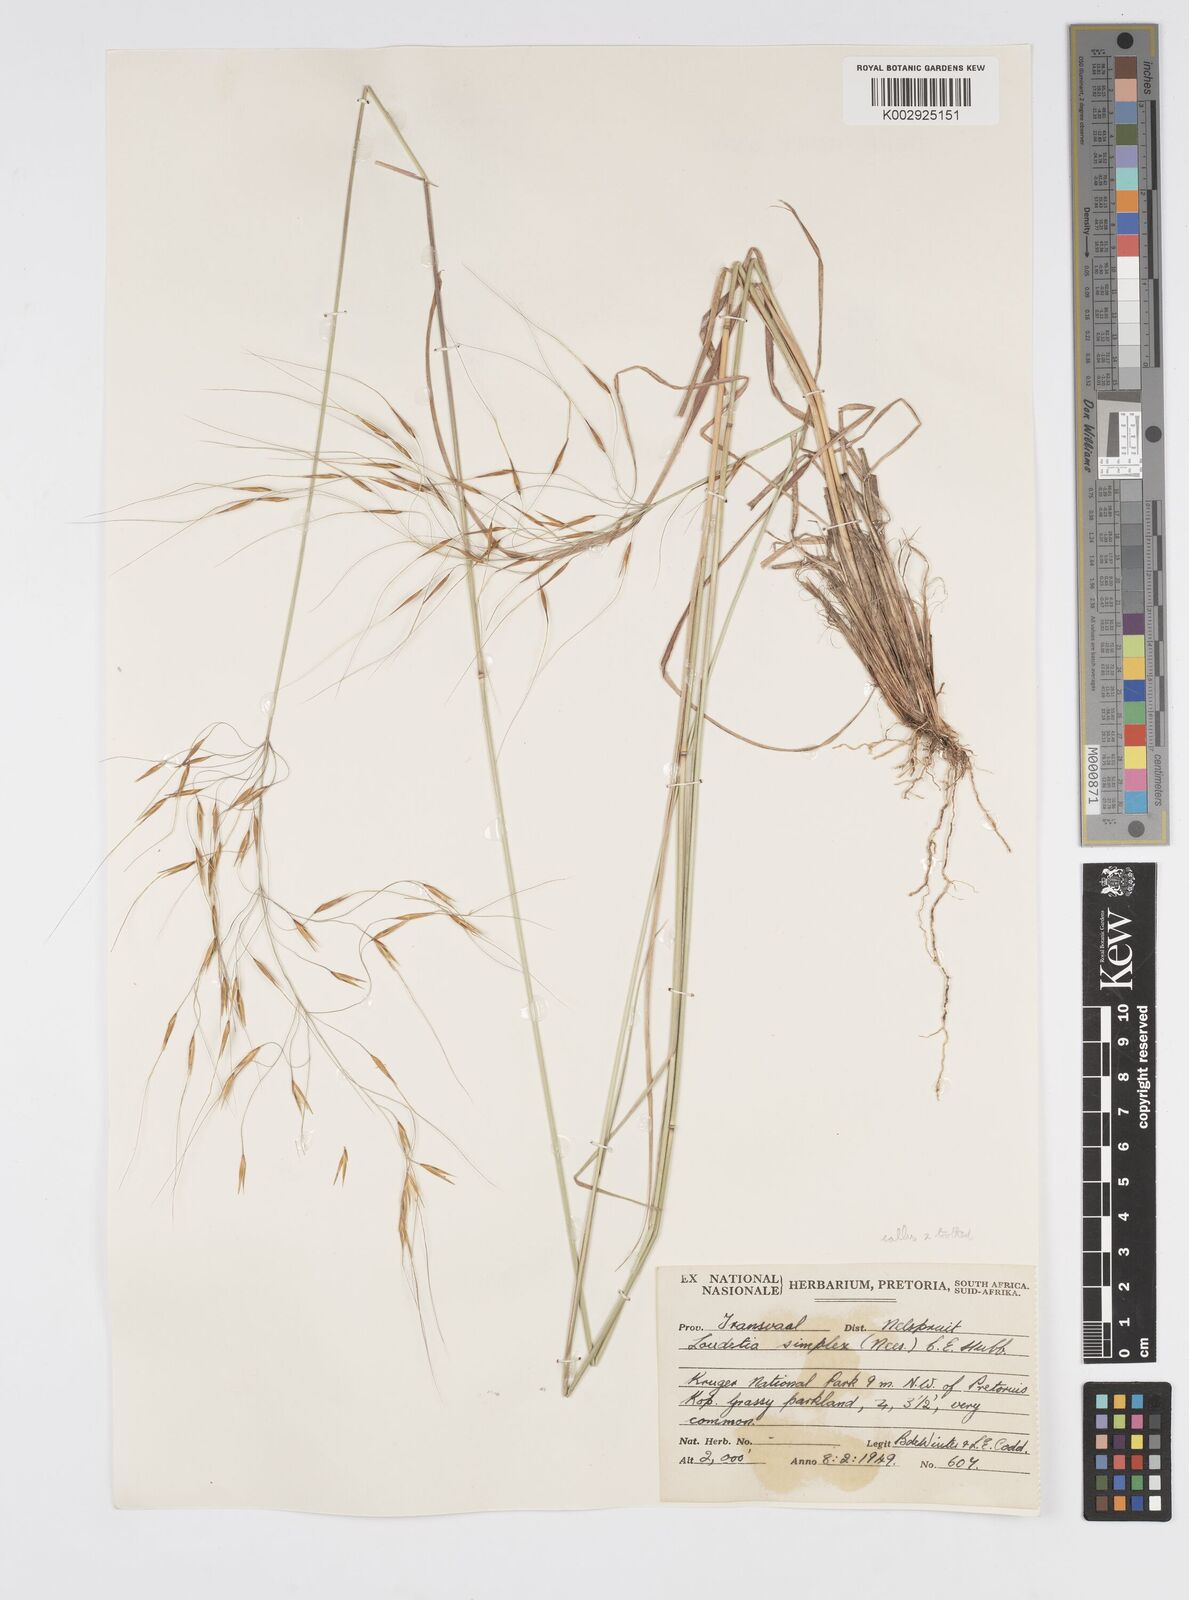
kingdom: Plantae
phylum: Tracheophyta
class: Liliopsida
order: Poales
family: Poaceae
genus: Loudetia
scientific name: Loudetia simplex
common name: Common russet grass
